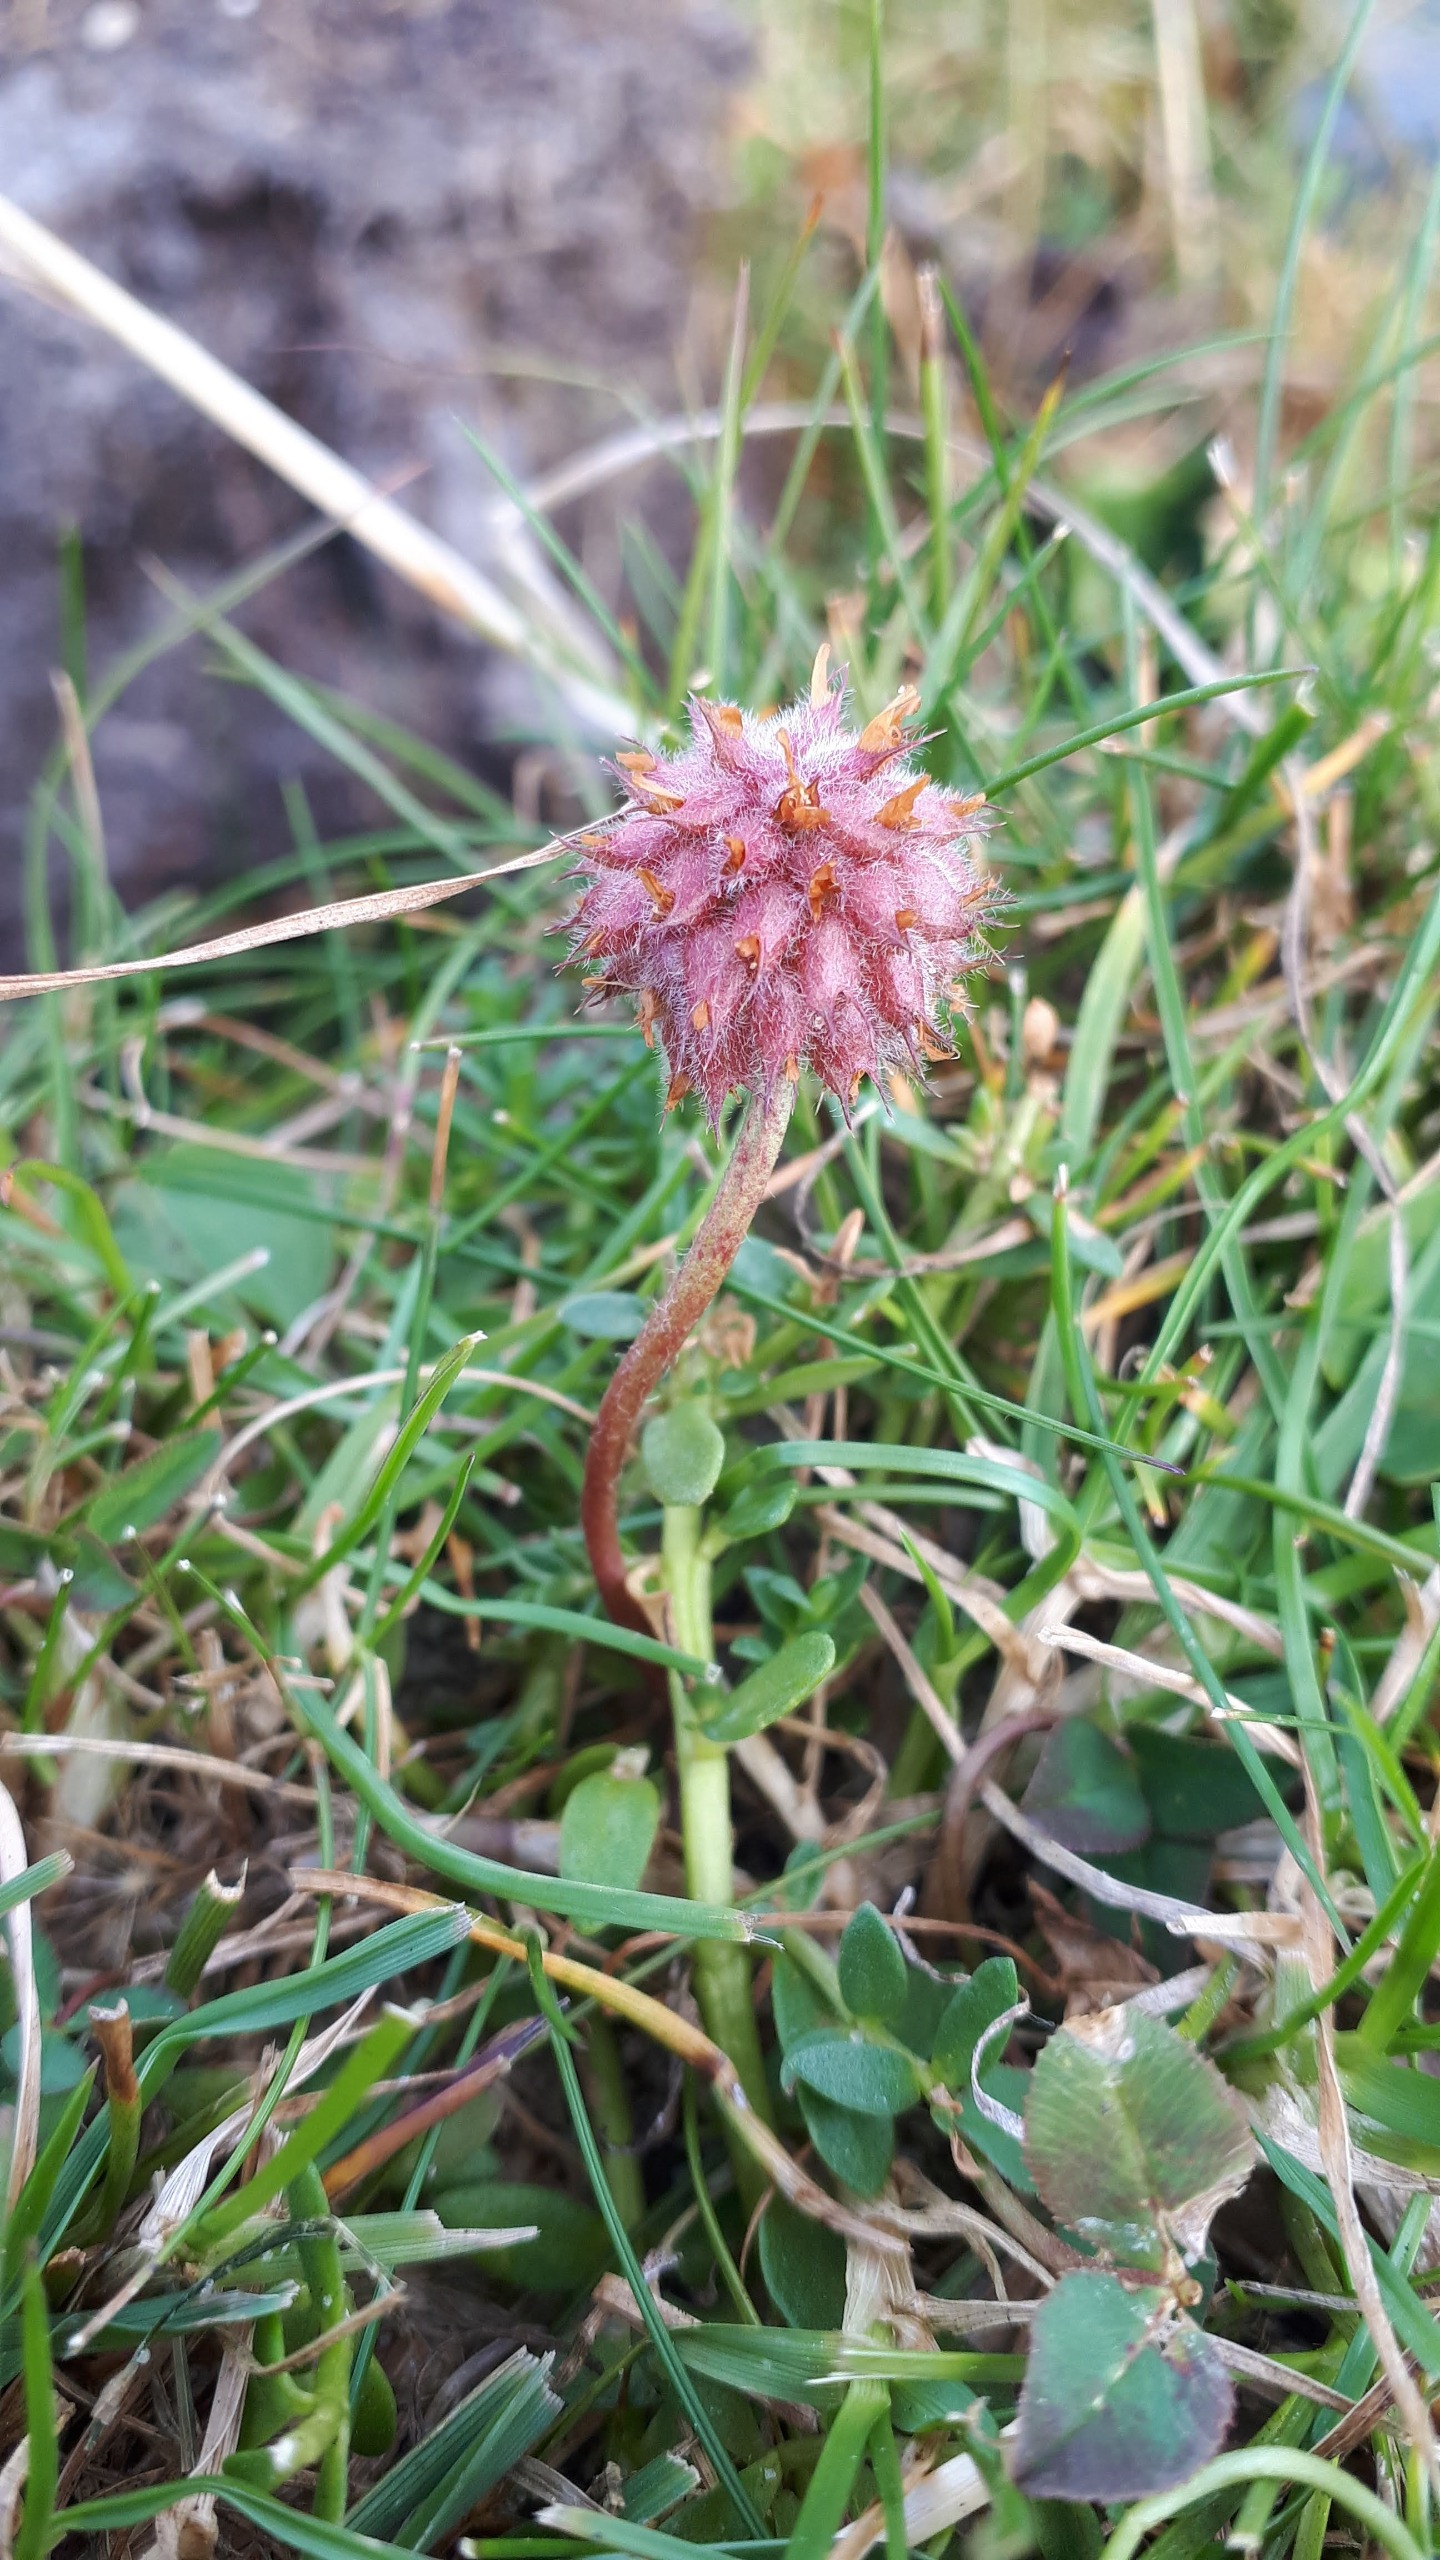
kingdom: Plantae
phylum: Tracheophyta
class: Magnoliopsida
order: Fabales
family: Fabaceae
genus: Trifolium
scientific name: Trifolium fragiferum
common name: Jordbær-kløver
